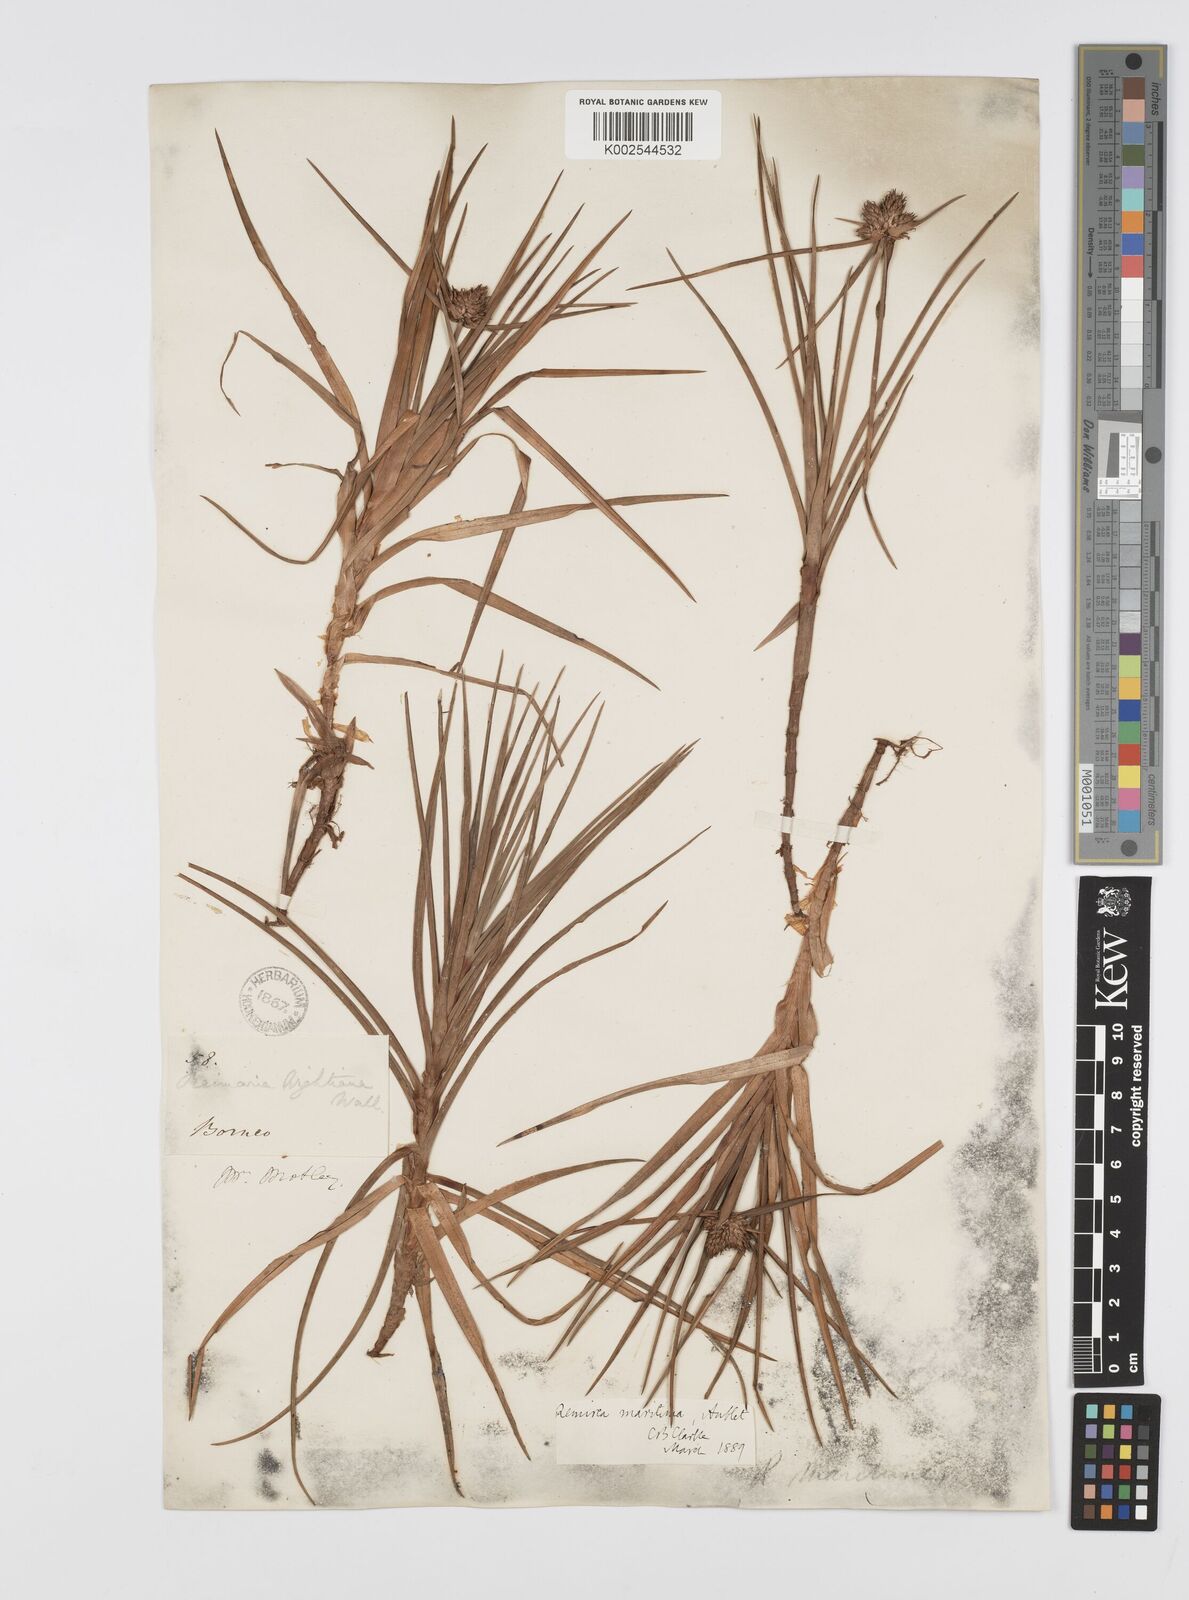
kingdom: Plantae
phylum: Tracheophyta
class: Liliopsida
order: Poales
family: Cyperaceae
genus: Cyperus
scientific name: Cyperus
